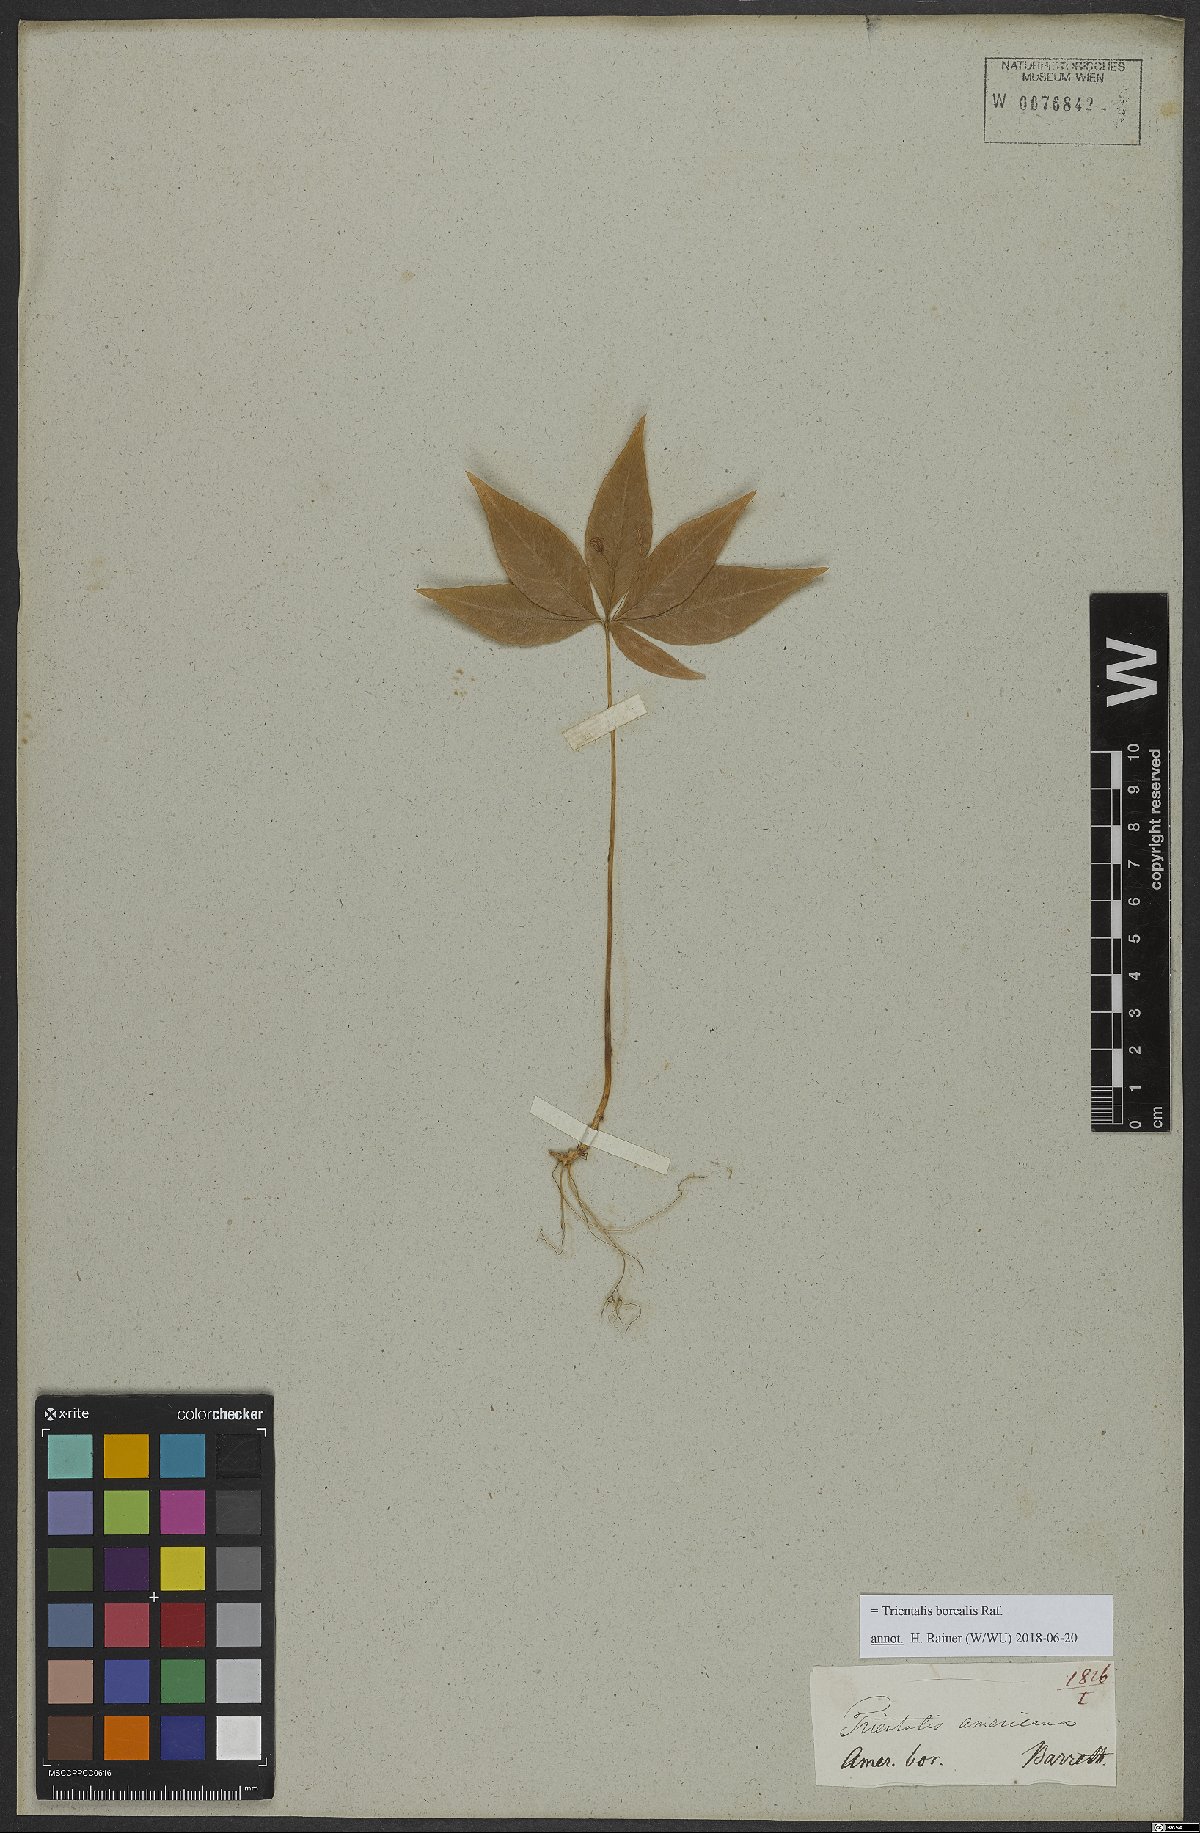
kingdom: Plantae
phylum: Tracheophyta
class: Magnoliopsida
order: Ericales
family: Primulaceae
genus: Lysimachia
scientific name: Lysimachia borealis
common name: American starflower
